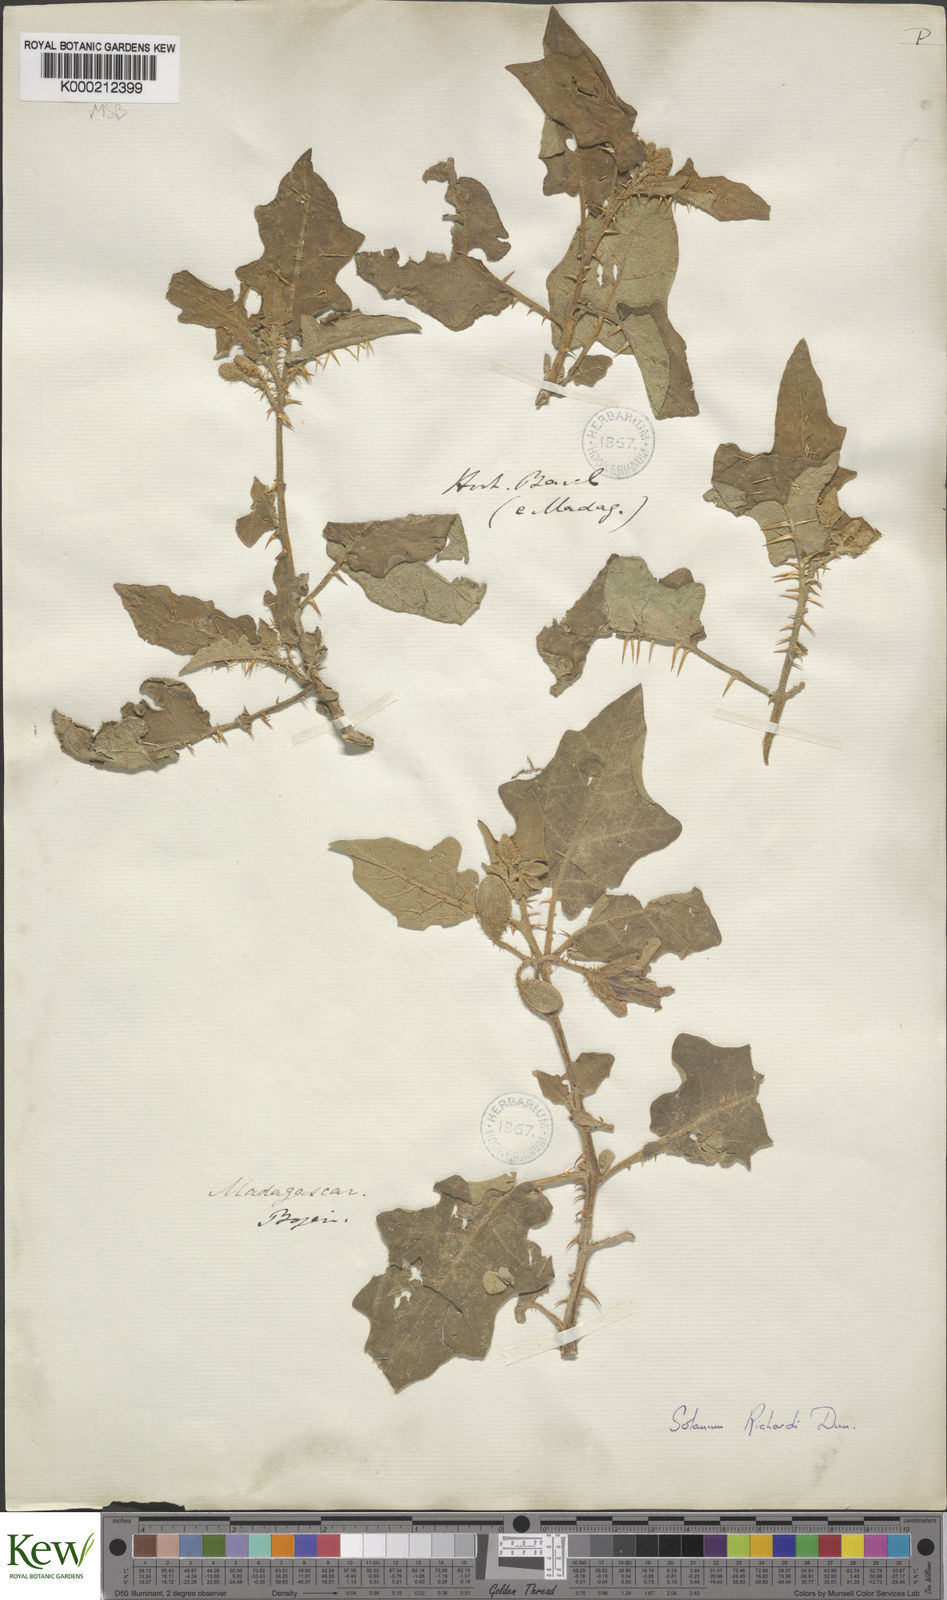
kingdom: Plantae
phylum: Tracheophyta
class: Magnoliopsida
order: Solanales
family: Solanaceae
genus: Solanum
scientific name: Solanum richardii
